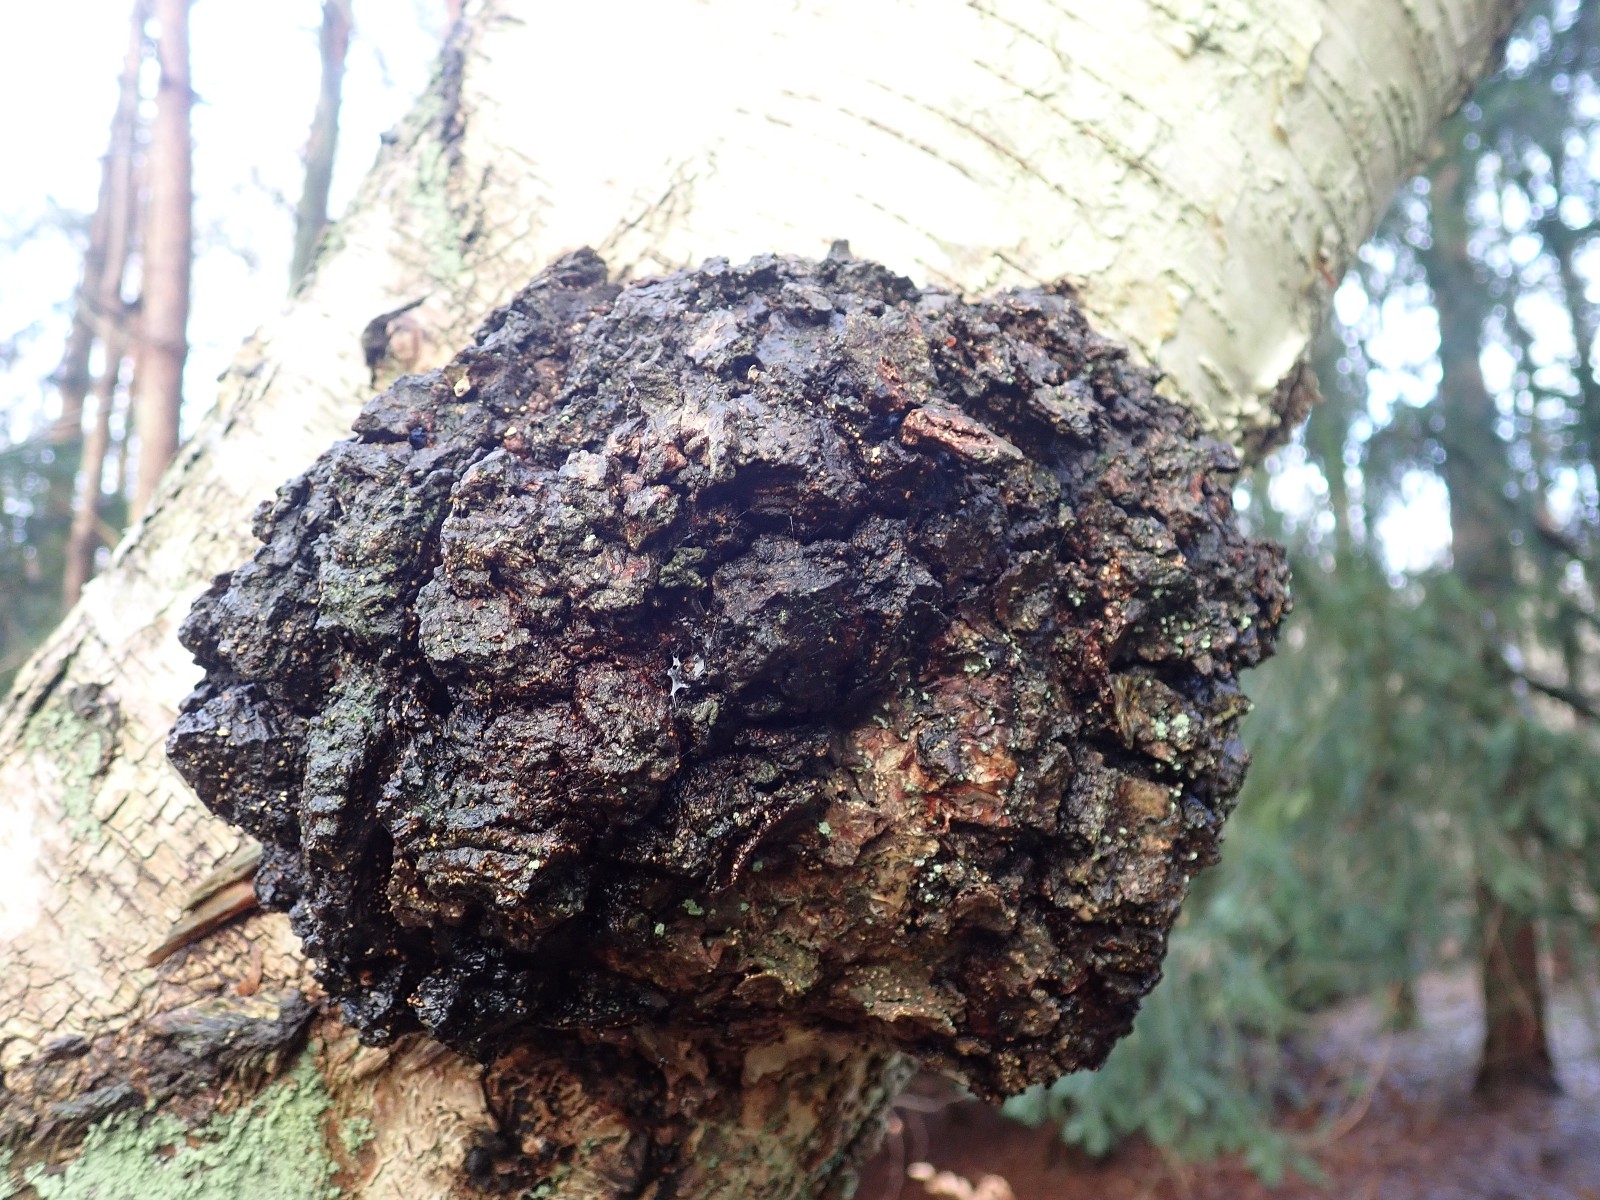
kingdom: Fungi
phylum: Basidiomycota
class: Agaricomycetes
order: Hymenochaetales
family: Hymenochaetaceae
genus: Inonotus
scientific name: Inonotus obliquus
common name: birke-spejlporesvamp
